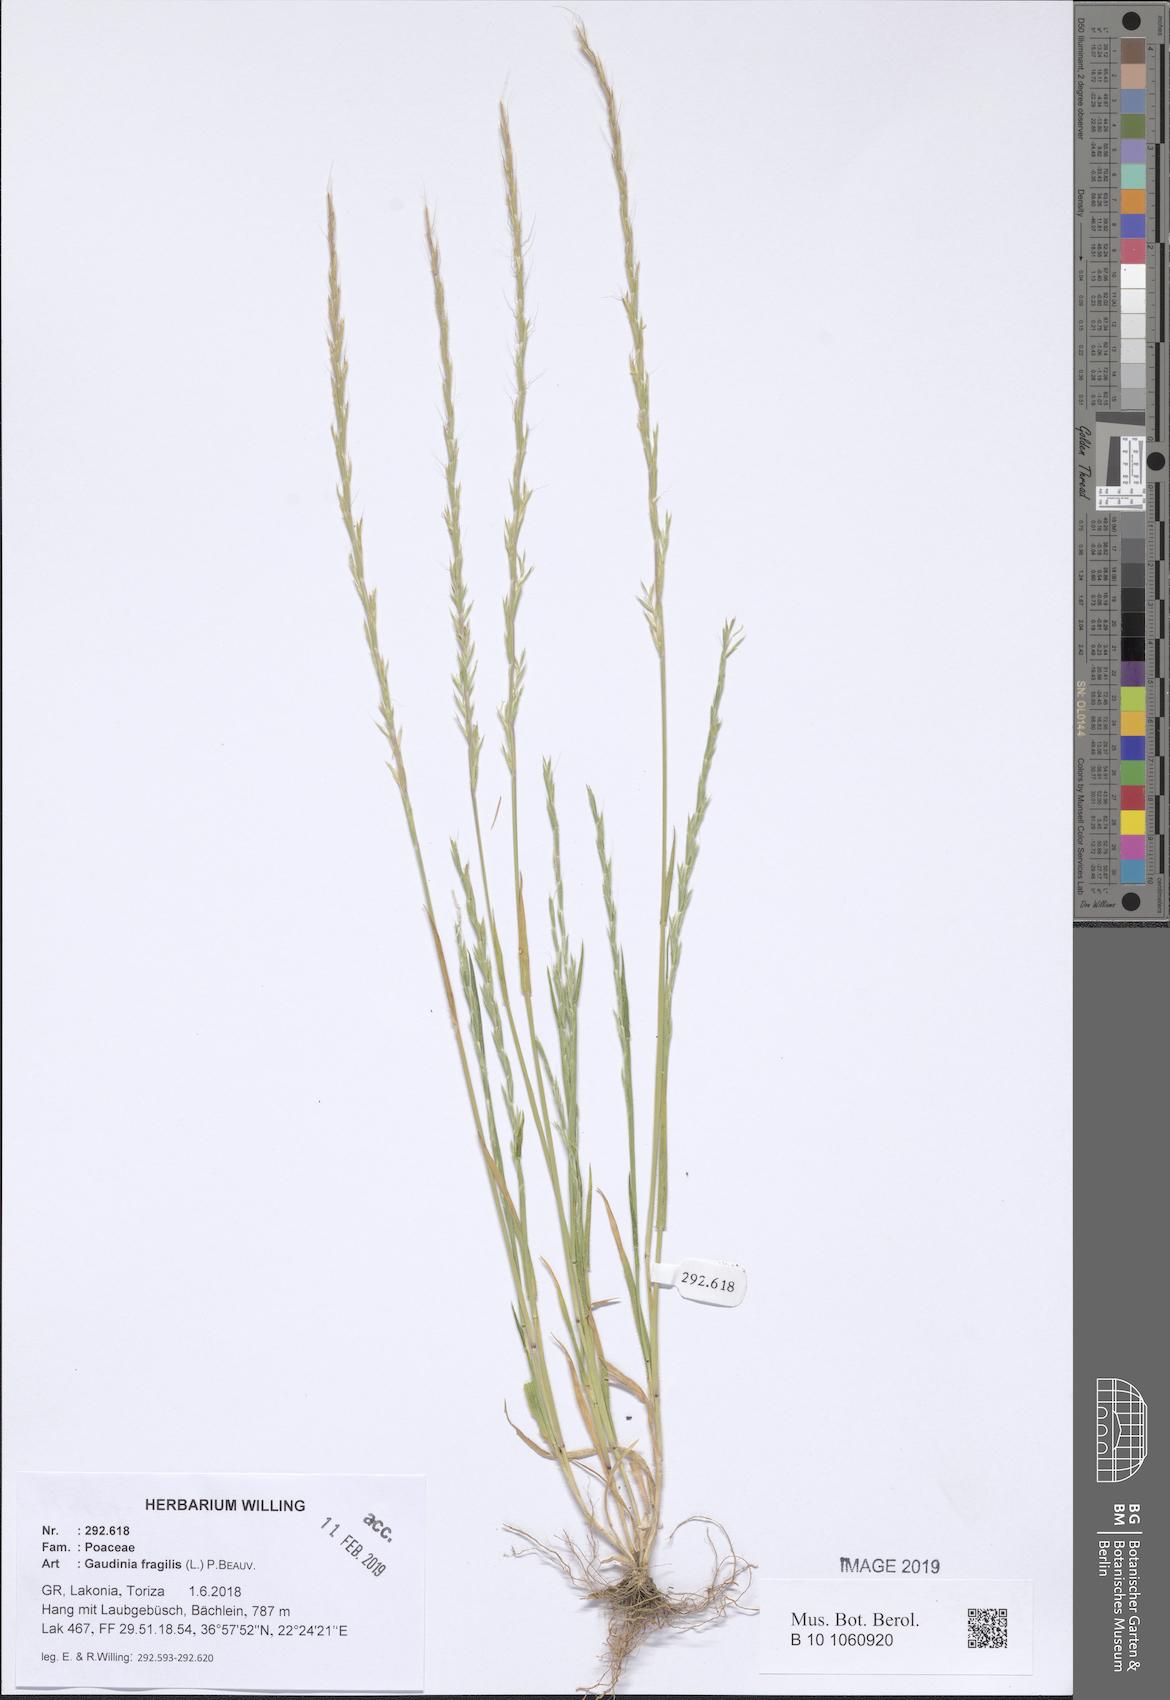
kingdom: Plantae
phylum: Tracheophyta
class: Liliopsida
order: Poales
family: Poaceae
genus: Gaudinia
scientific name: Gaudinia fragilis
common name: French oat-grass
